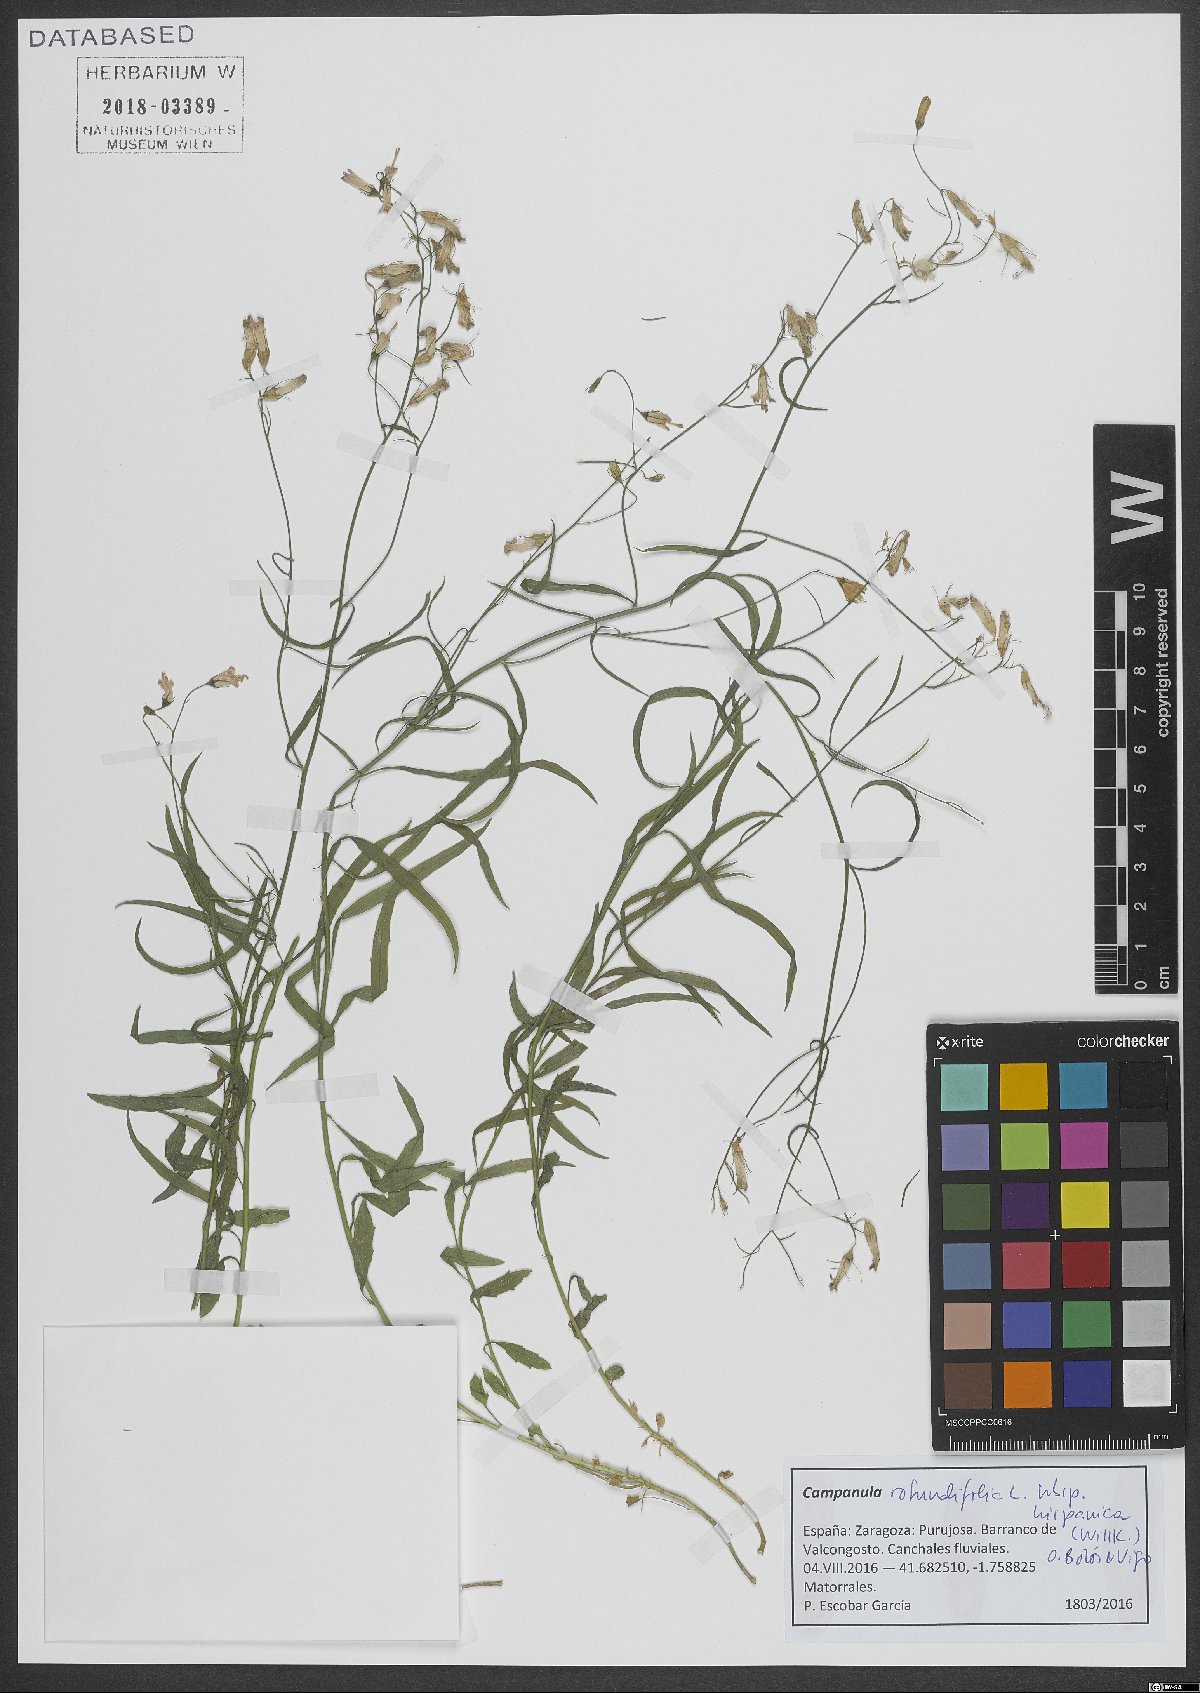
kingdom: Plantae
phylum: Tracheophyta
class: Magnoliopsida
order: Asterales
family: Campanulaceae
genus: Campanula
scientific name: Campanula hispanica
